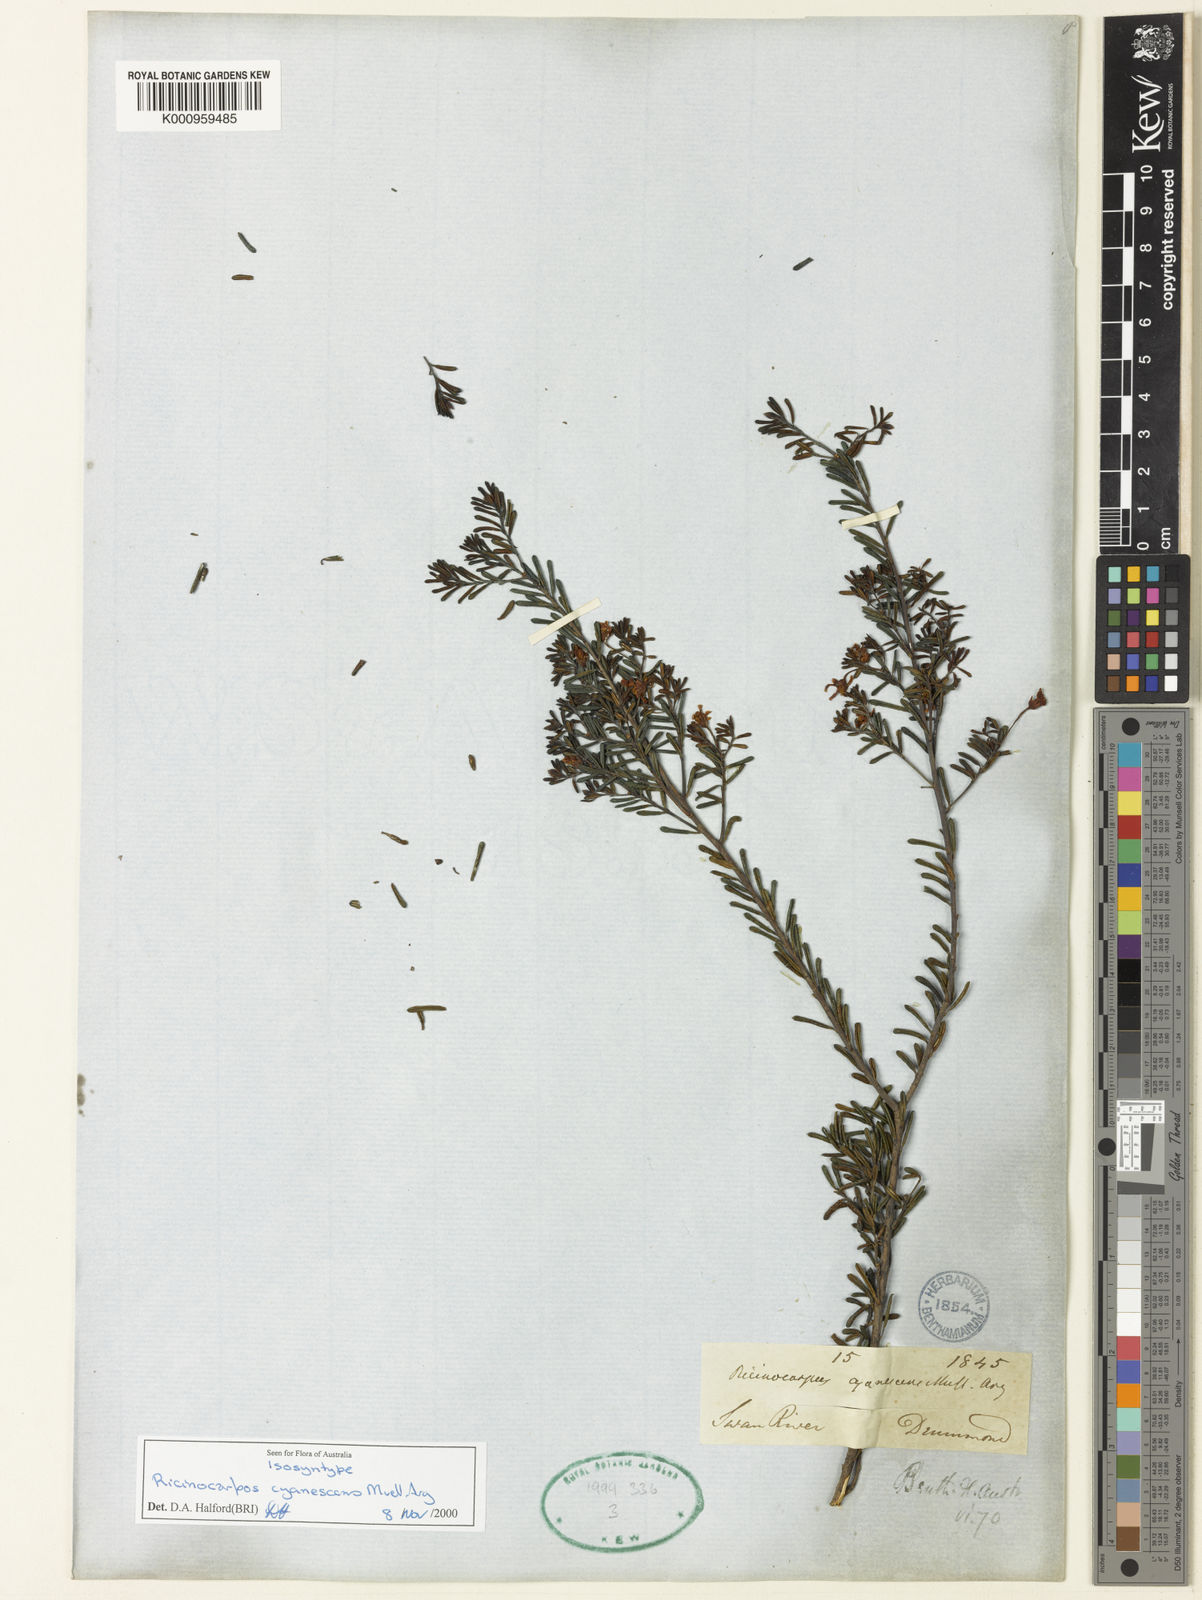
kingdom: Plantae
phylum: Tracheophyta
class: Magnoliopsida
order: Malpighiales
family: Euphorbiaceae
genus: Ricinocarpos
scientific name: Ricinocarpos
